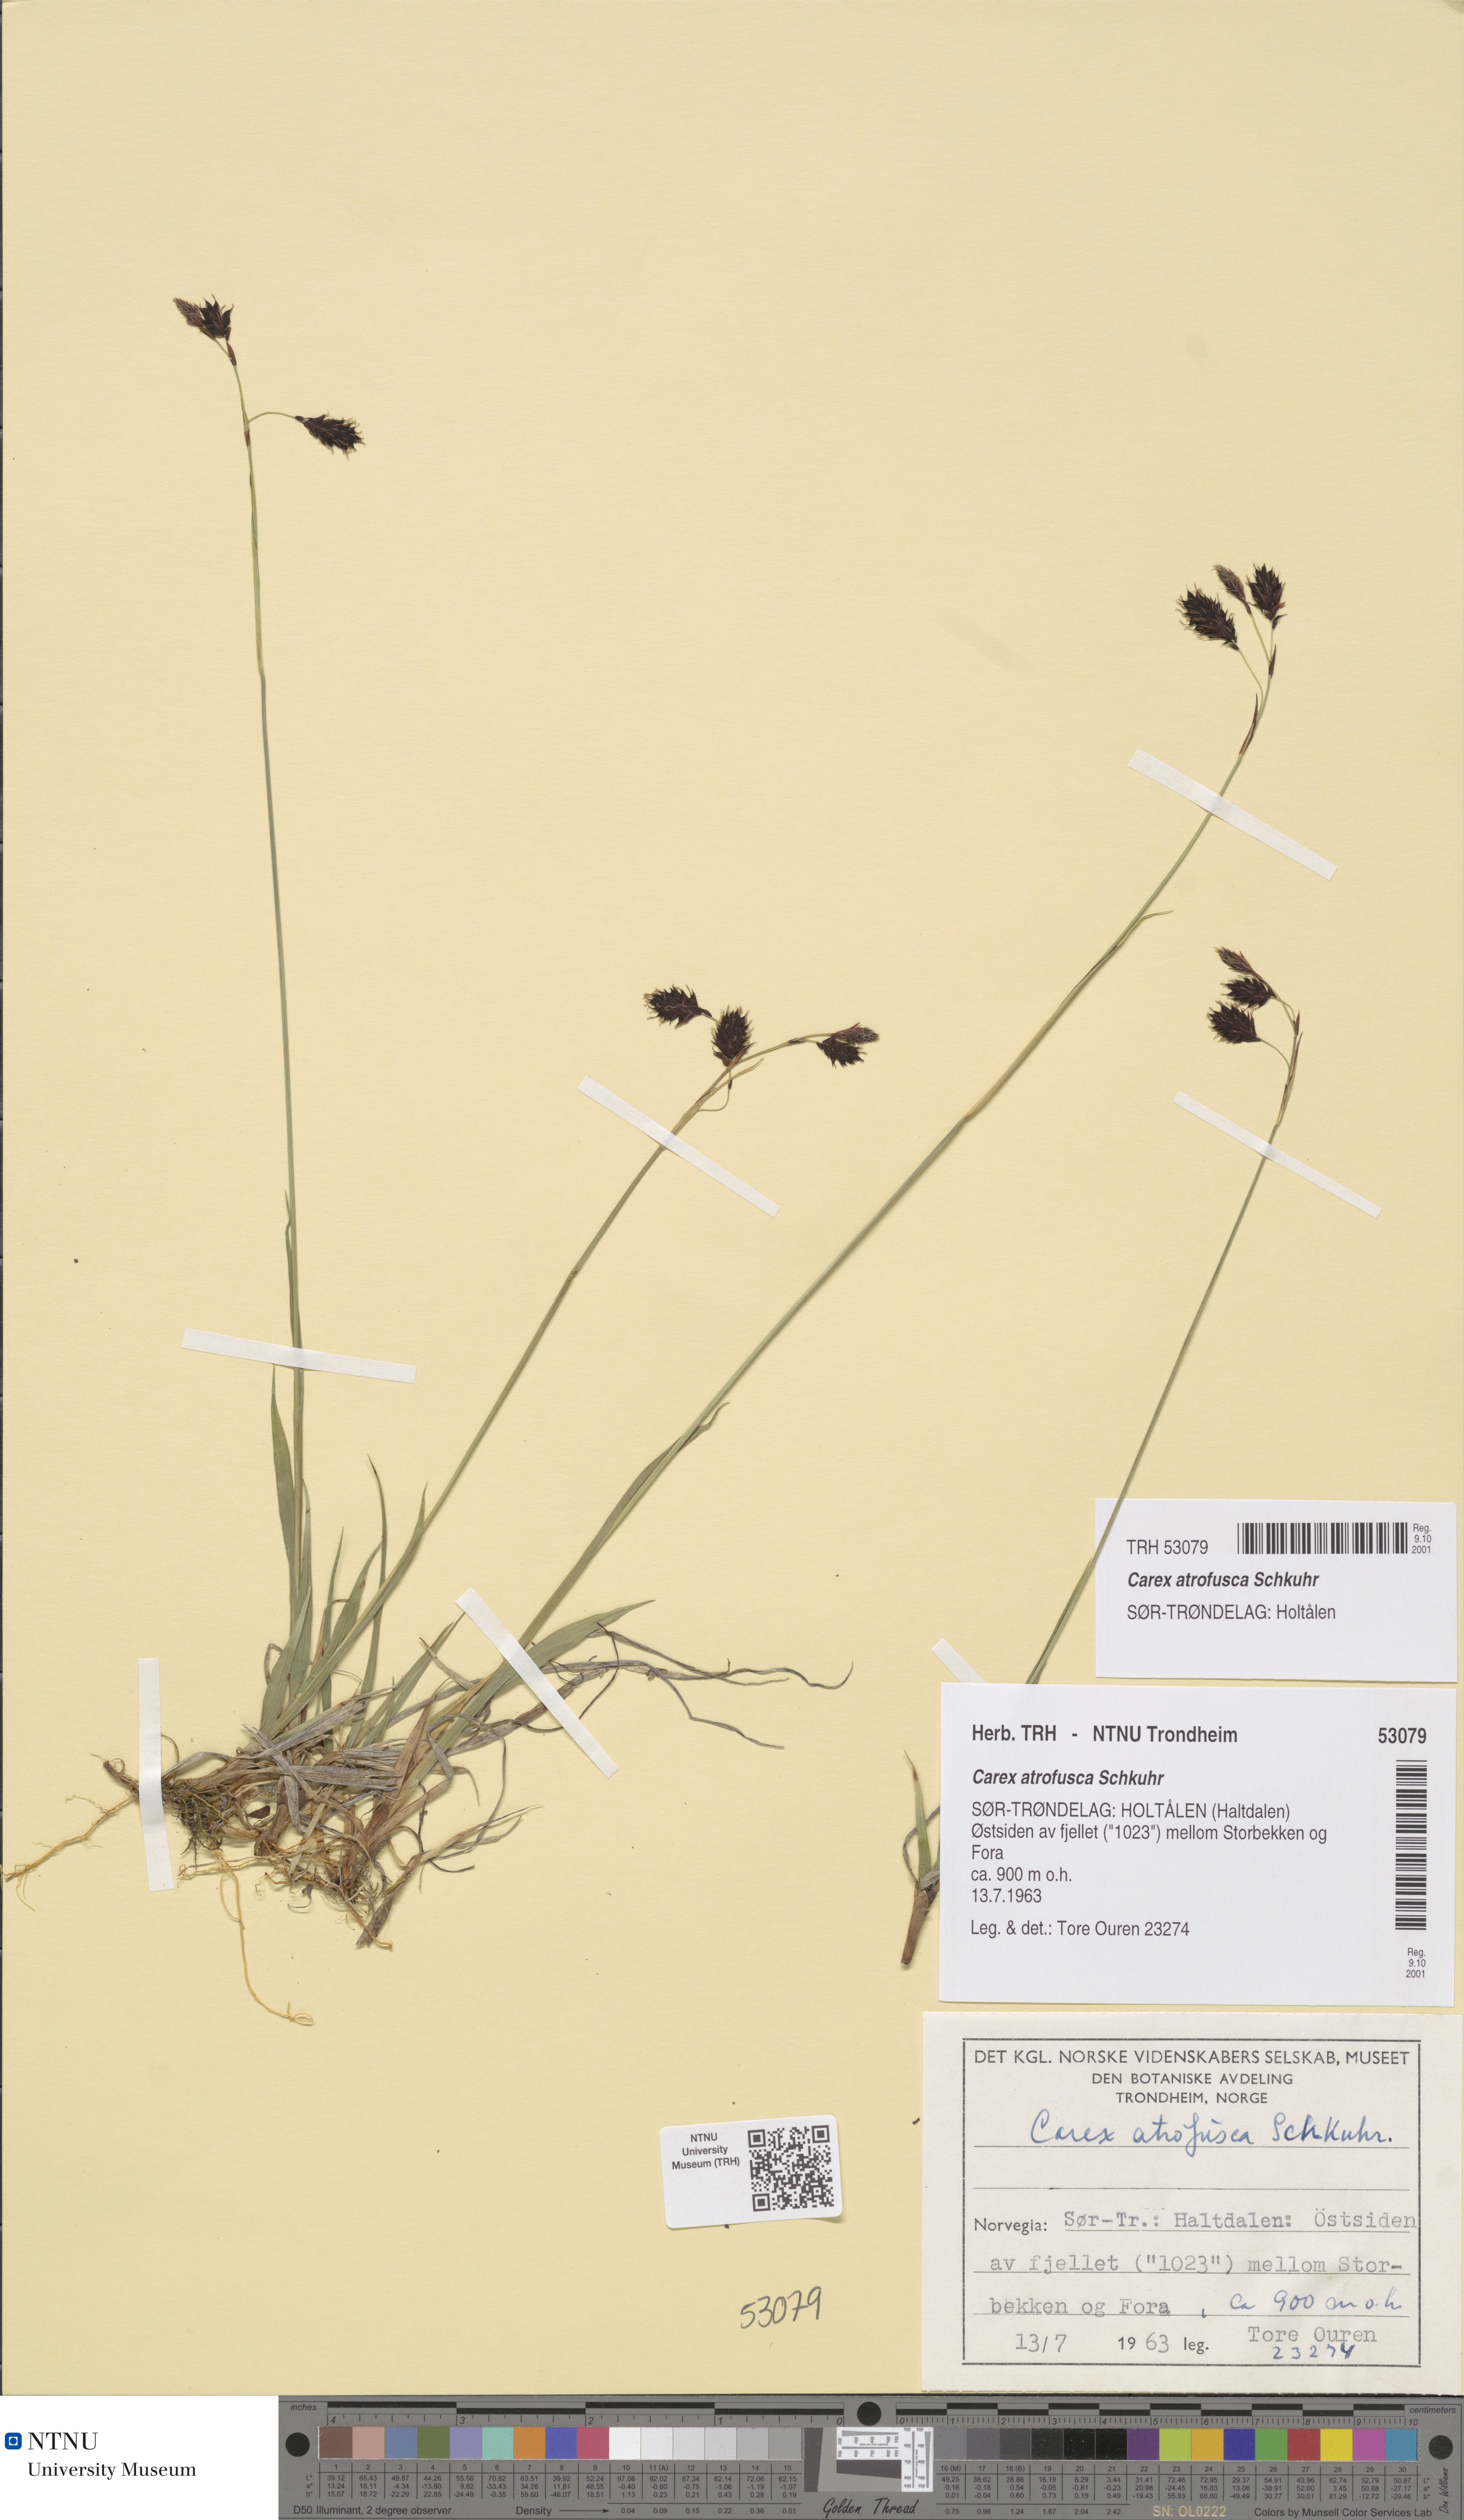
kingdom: Plantae
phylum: Tracheophyta
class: Liliopsida
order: Poales
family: Cyperaceae
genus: Carex
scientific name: Carex atrofusca
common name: Scorched alpine-sedge
